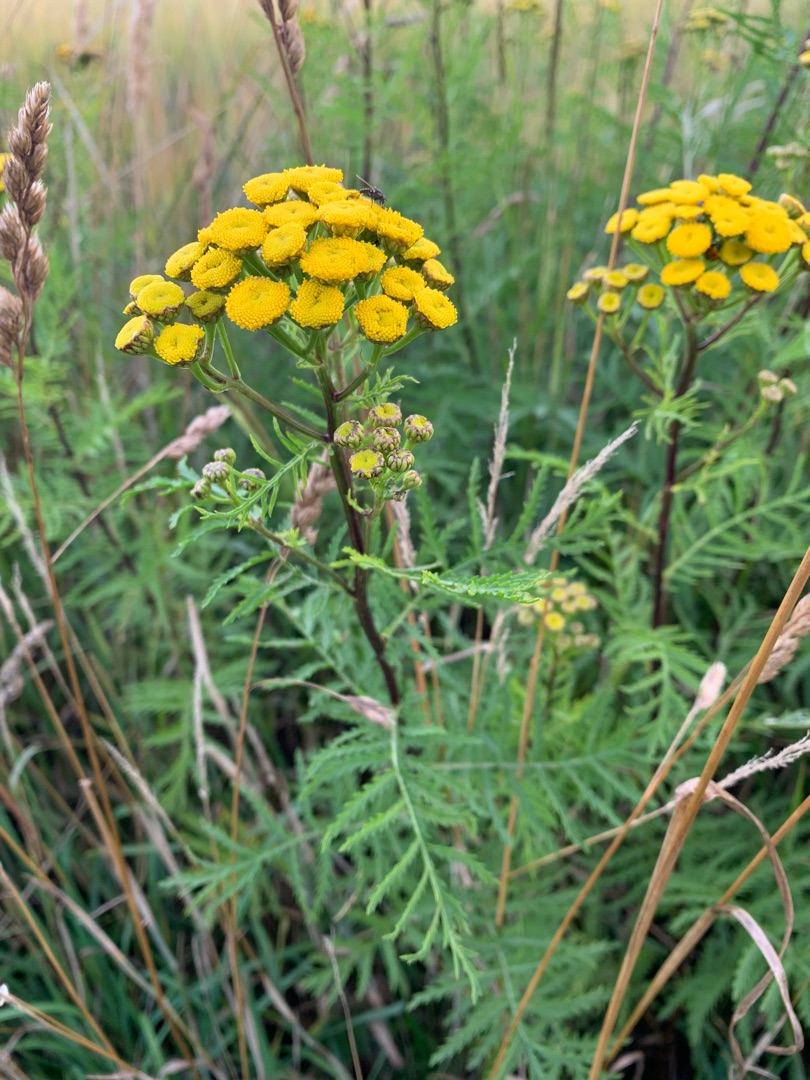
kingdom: Plantae
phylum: Tracheophyta
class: Magnoliopsida
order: Asterales
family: Asteraceae
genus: Tanacetum
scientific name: Tanacetum vulgare
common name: Rejnfan
